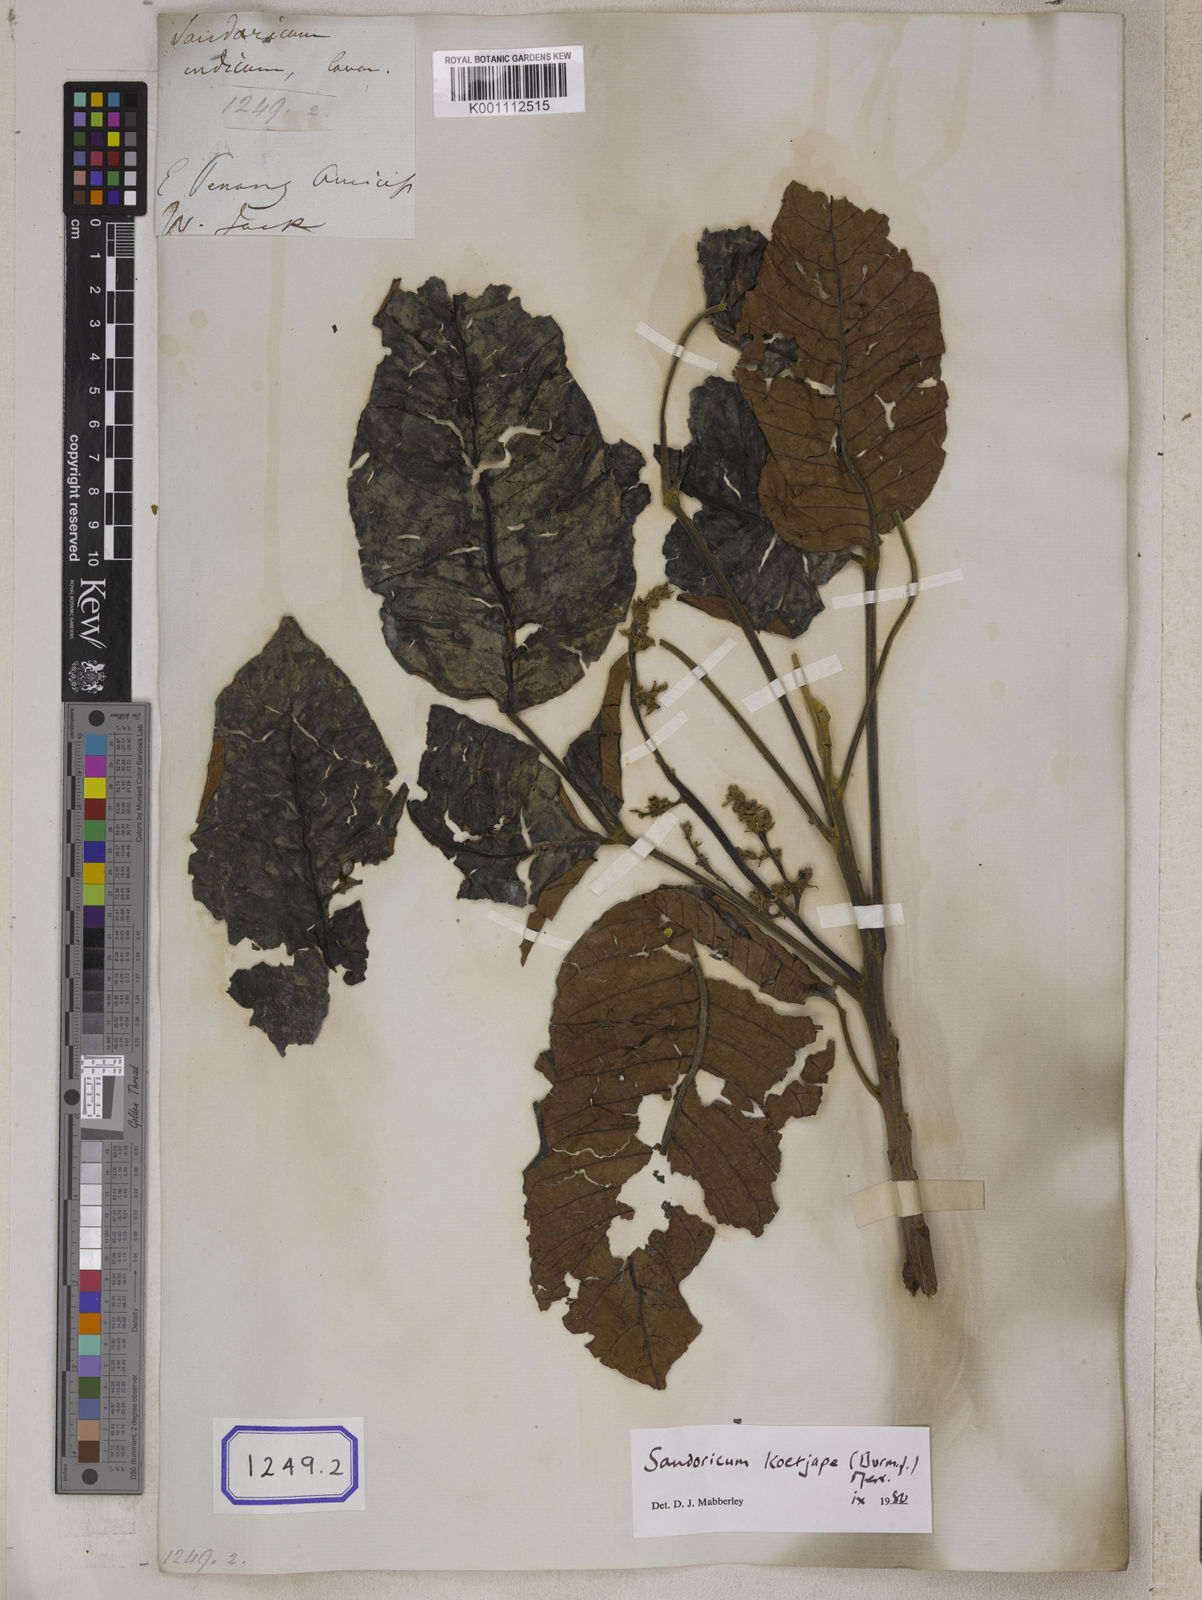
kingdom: Plantae
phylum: Tracheophyta
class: Magnoliopsida
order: Sapindales
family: Meliaceae
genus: Sandoricum
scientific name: Sandoricum koetjape
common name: Santol
